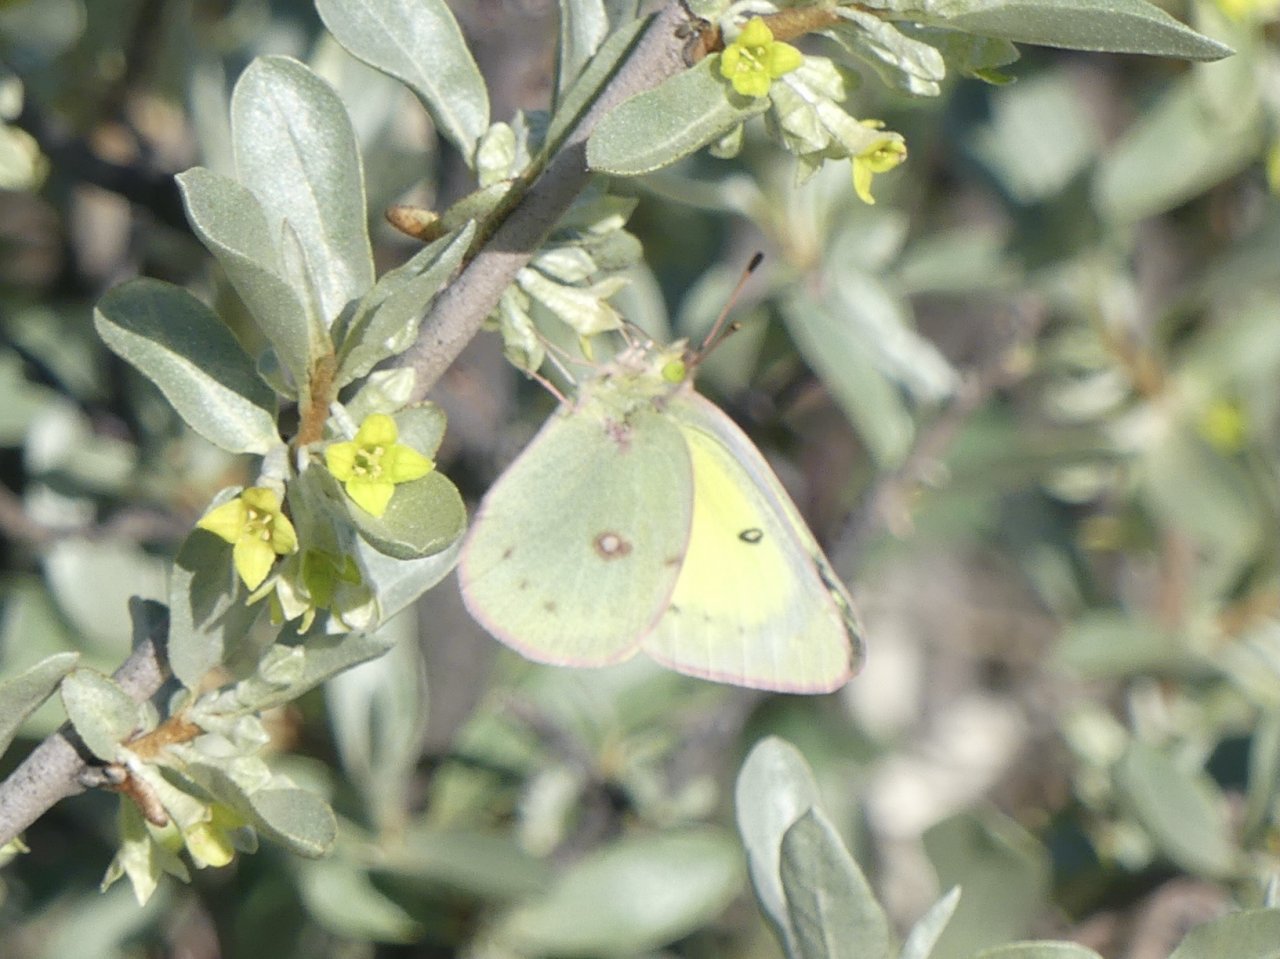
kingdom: Animalia
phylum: Arthropoda
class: Insecta
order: Lepidoptera
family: Pieridae
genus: Colias
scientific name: Colias philodice
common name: Clouded Sulphur
